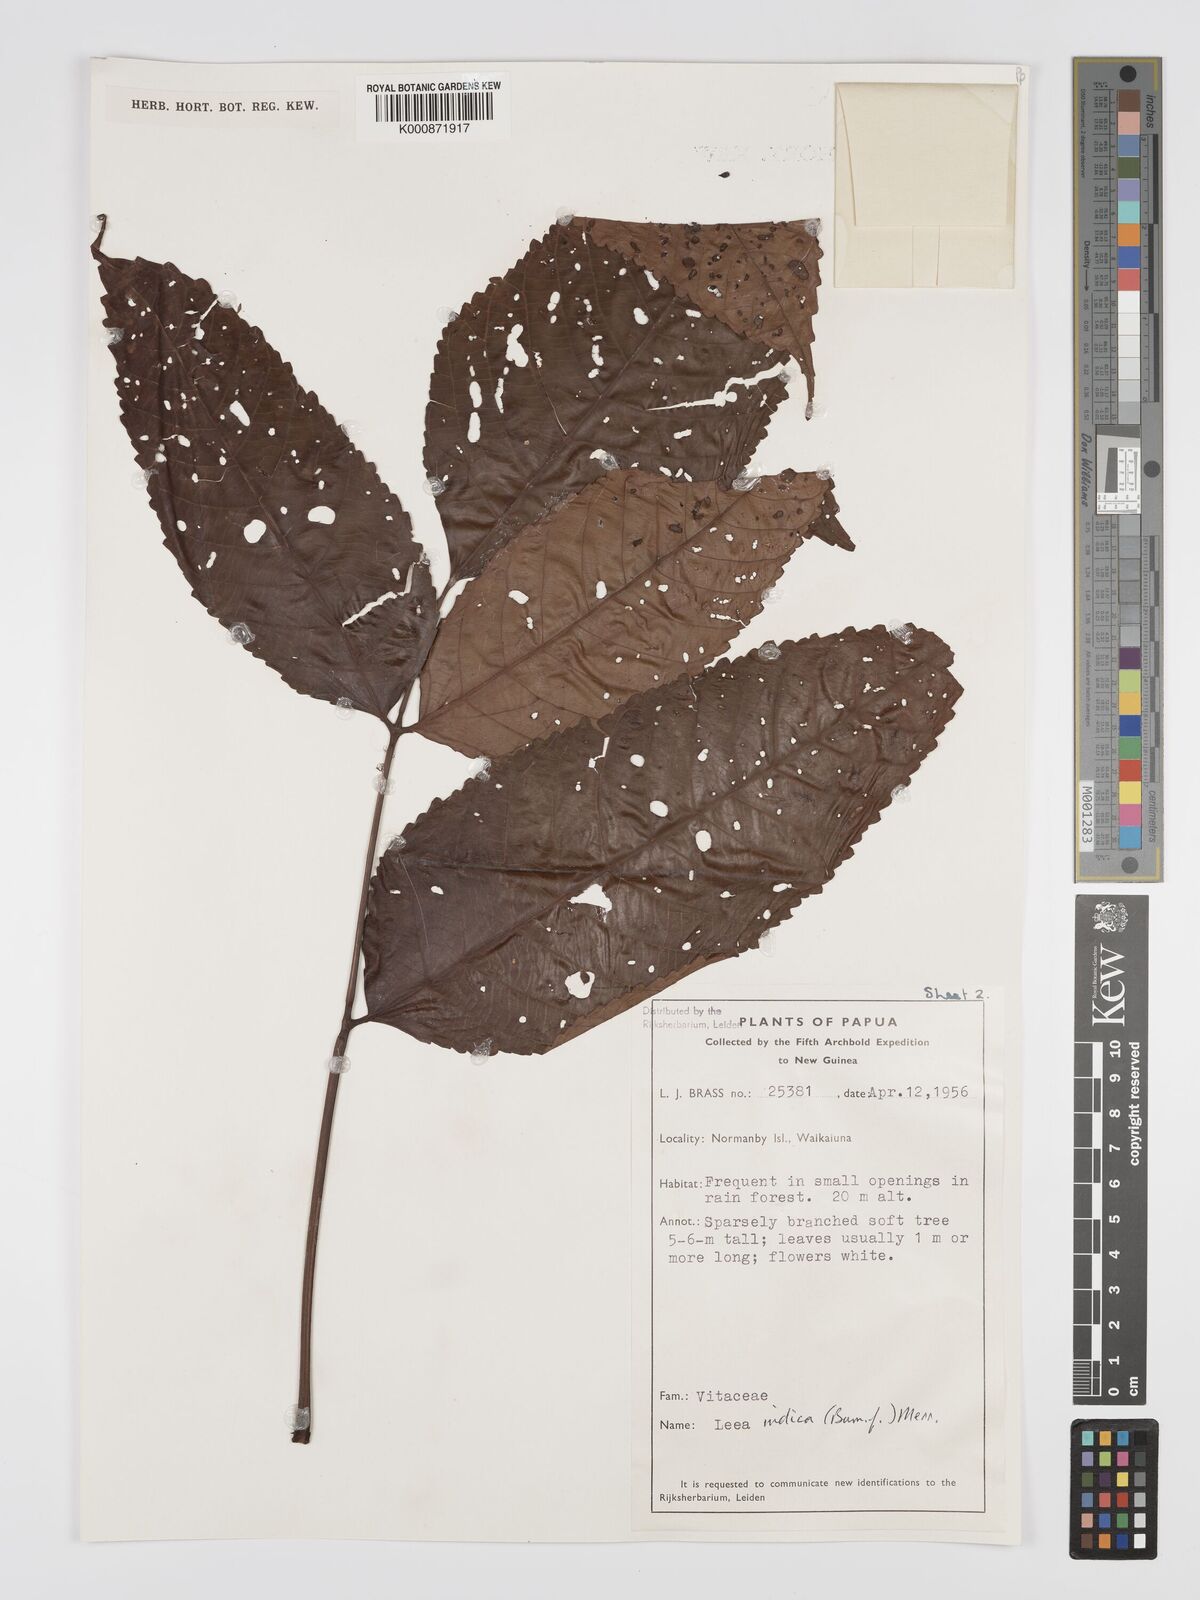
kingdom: Plantae
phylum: Tracheophyta
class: Magnoliopsida
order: Vitales
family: Vitaceae
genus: Leea
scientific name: Leea indica
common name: Bandicoot-berry
